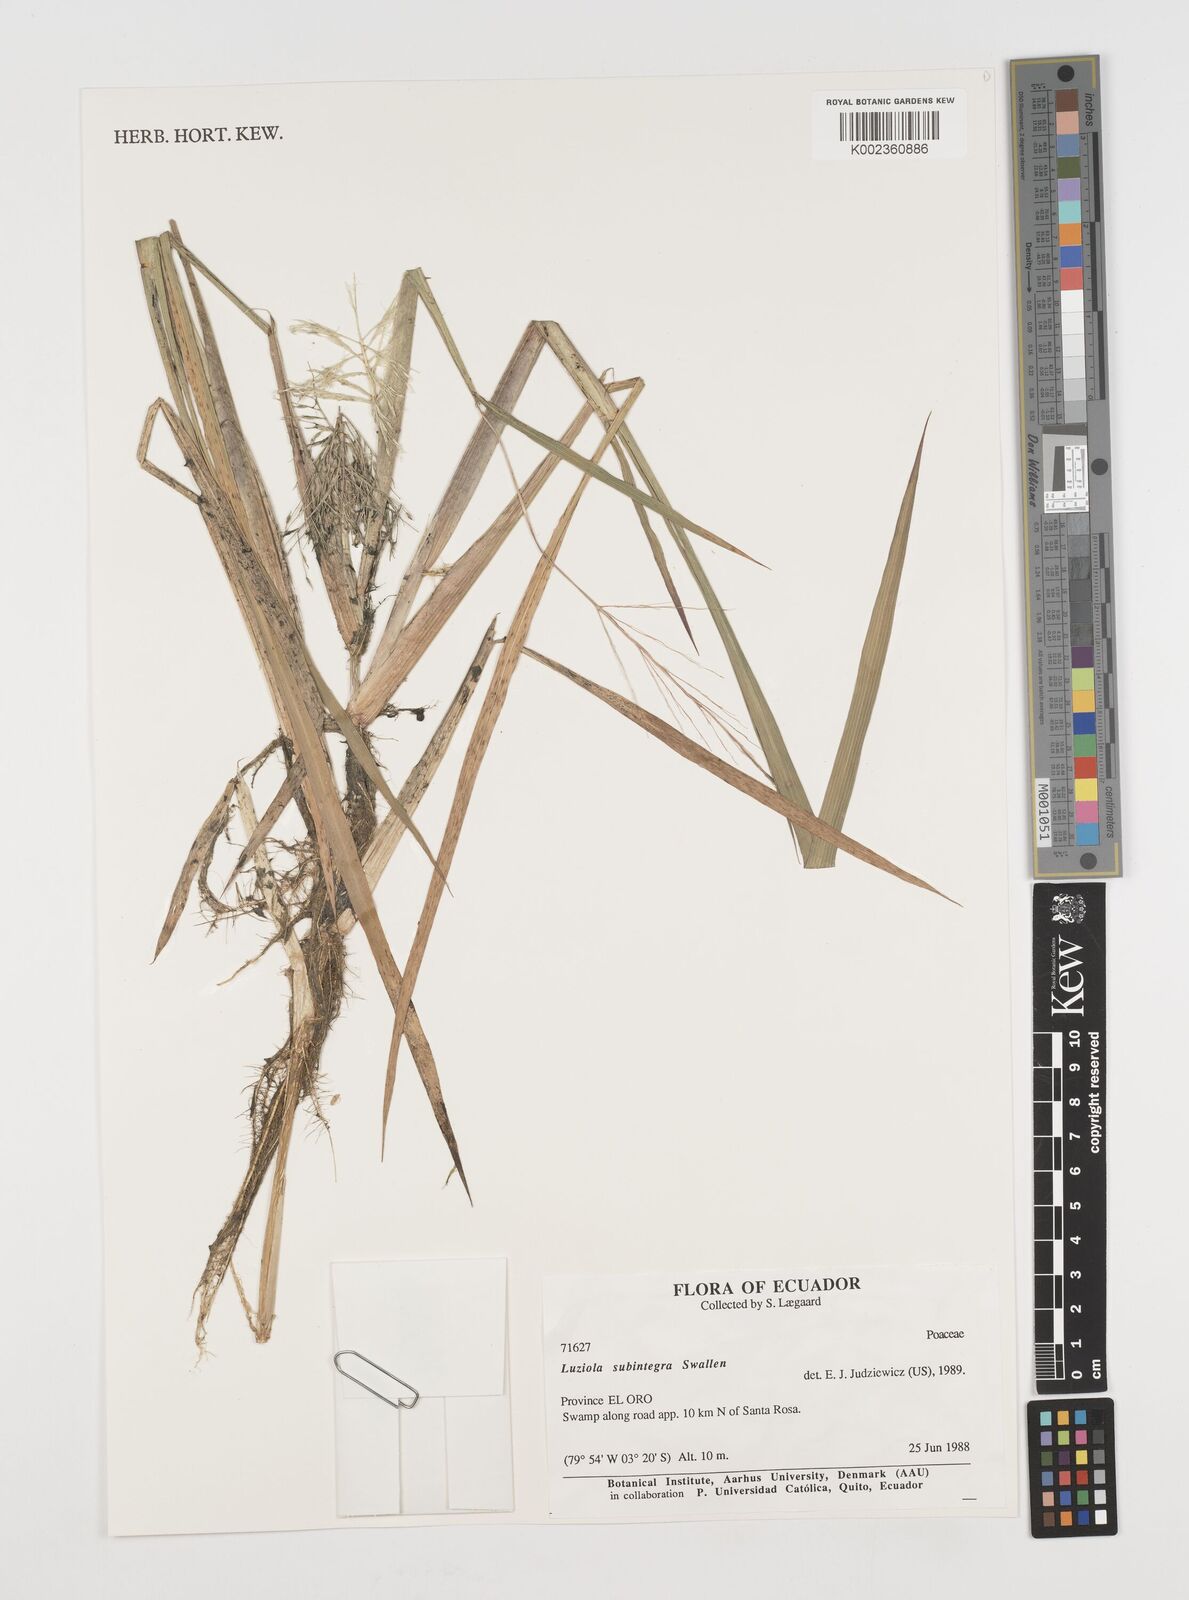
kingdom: Plantae
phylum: Tracheophyta
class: Liliopsida
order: Poales
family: Poaceae
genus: Luziola
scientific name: Luziola subintegra
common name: Large watergrass
